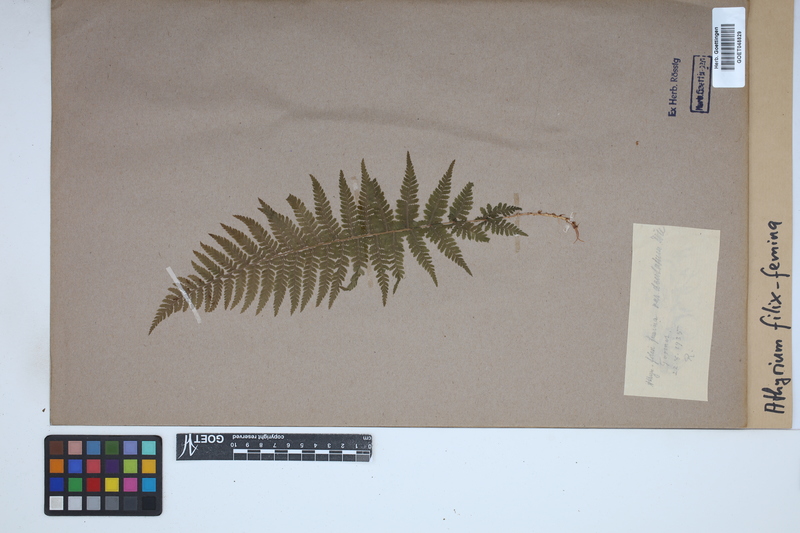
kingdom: Plantae
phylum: Tracheophyta
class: Polypodiopsida
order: Polypodiales
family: Athyriaceae
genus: Athyrium
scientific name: Athyrium filix-femina
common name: Lady fern
